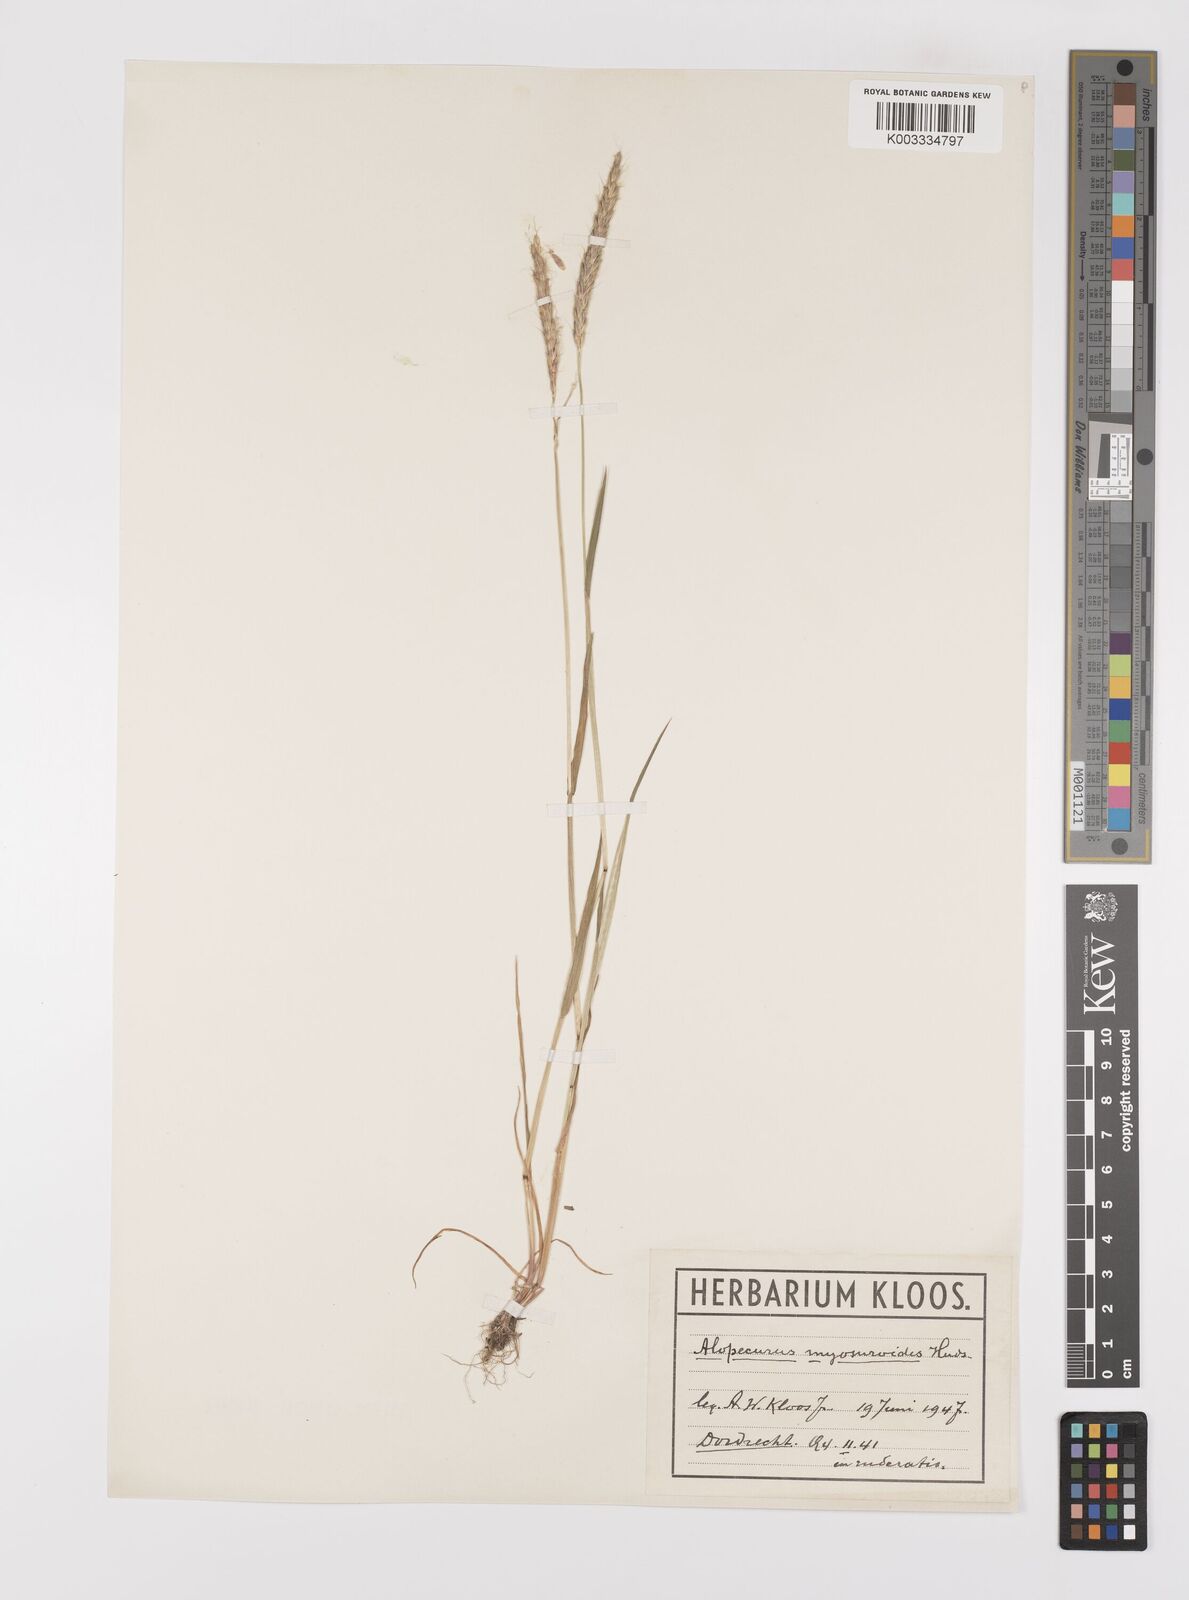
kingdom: Plantae
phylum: Tracheophyta
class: Liliopsida
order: Poales
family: Poaceae
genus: Alopecurus
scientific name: Alopecurus myosuroides
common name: Black-grass
